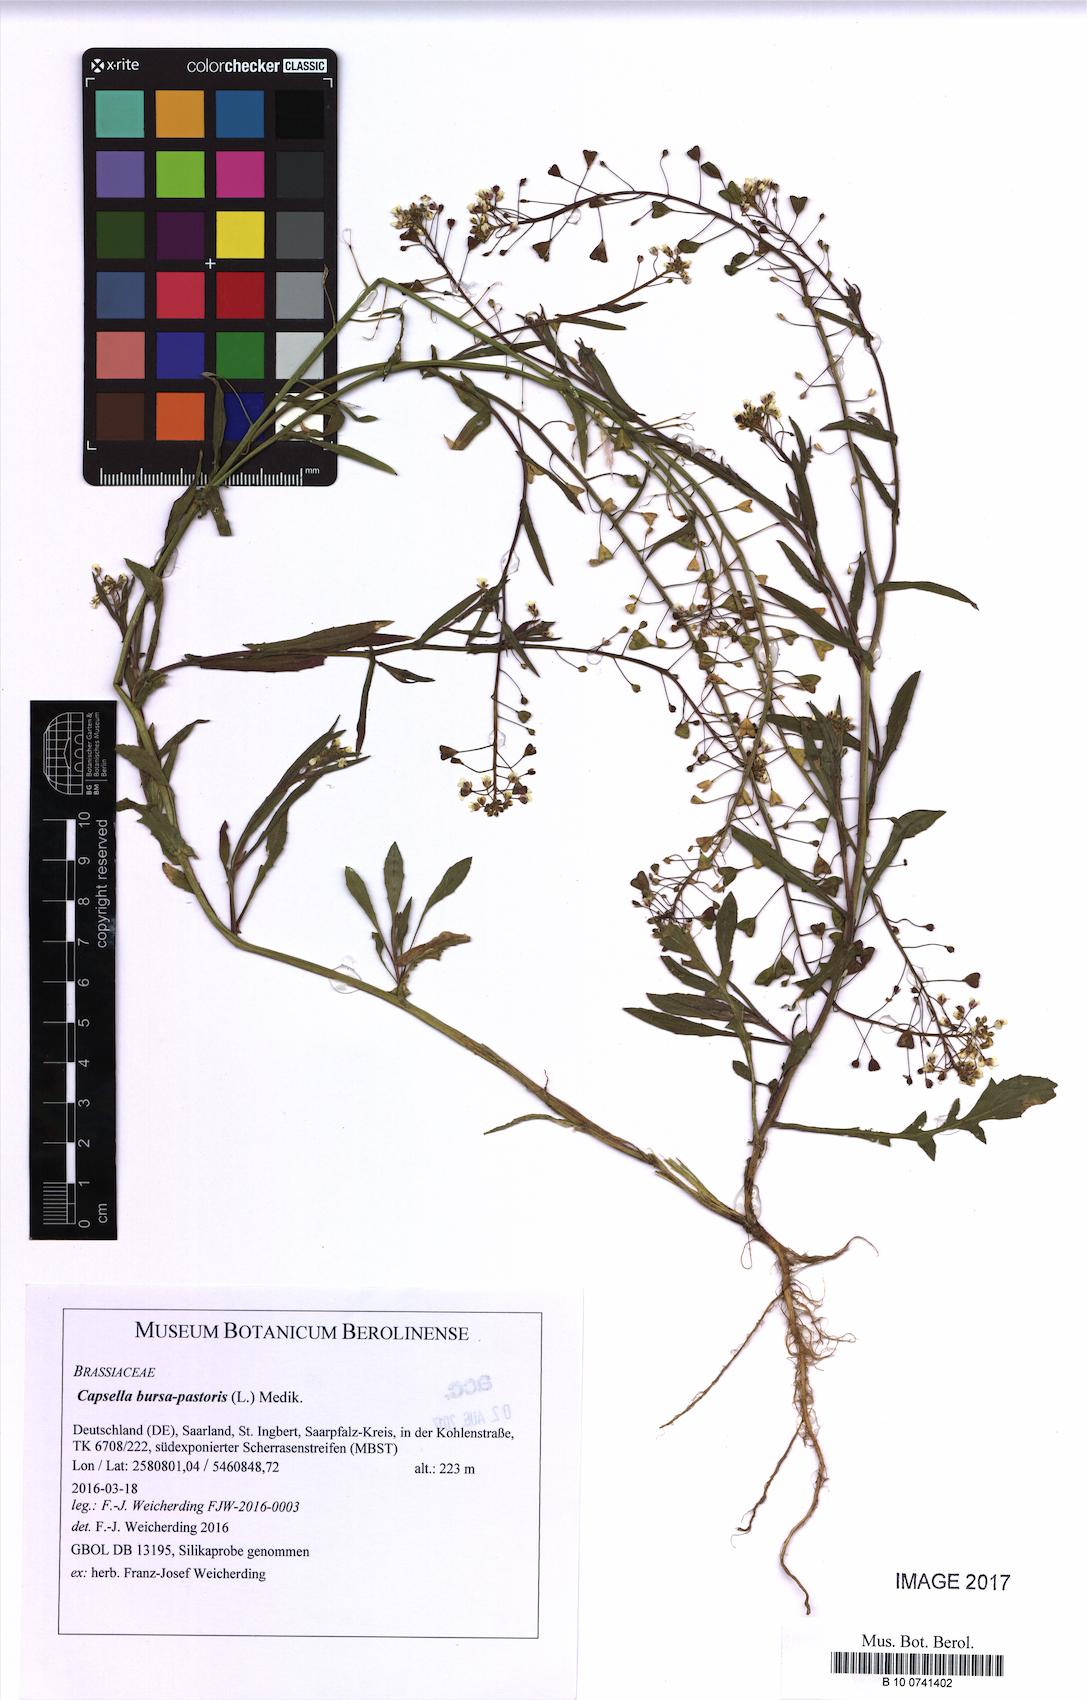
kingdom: Plantae
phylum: Tracheophyta
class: Magnoliopsida
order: Brassicales
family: Brassicaceae
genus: Capsella
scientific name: Capsella bursa-pastoris
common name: Shepherd's purse
